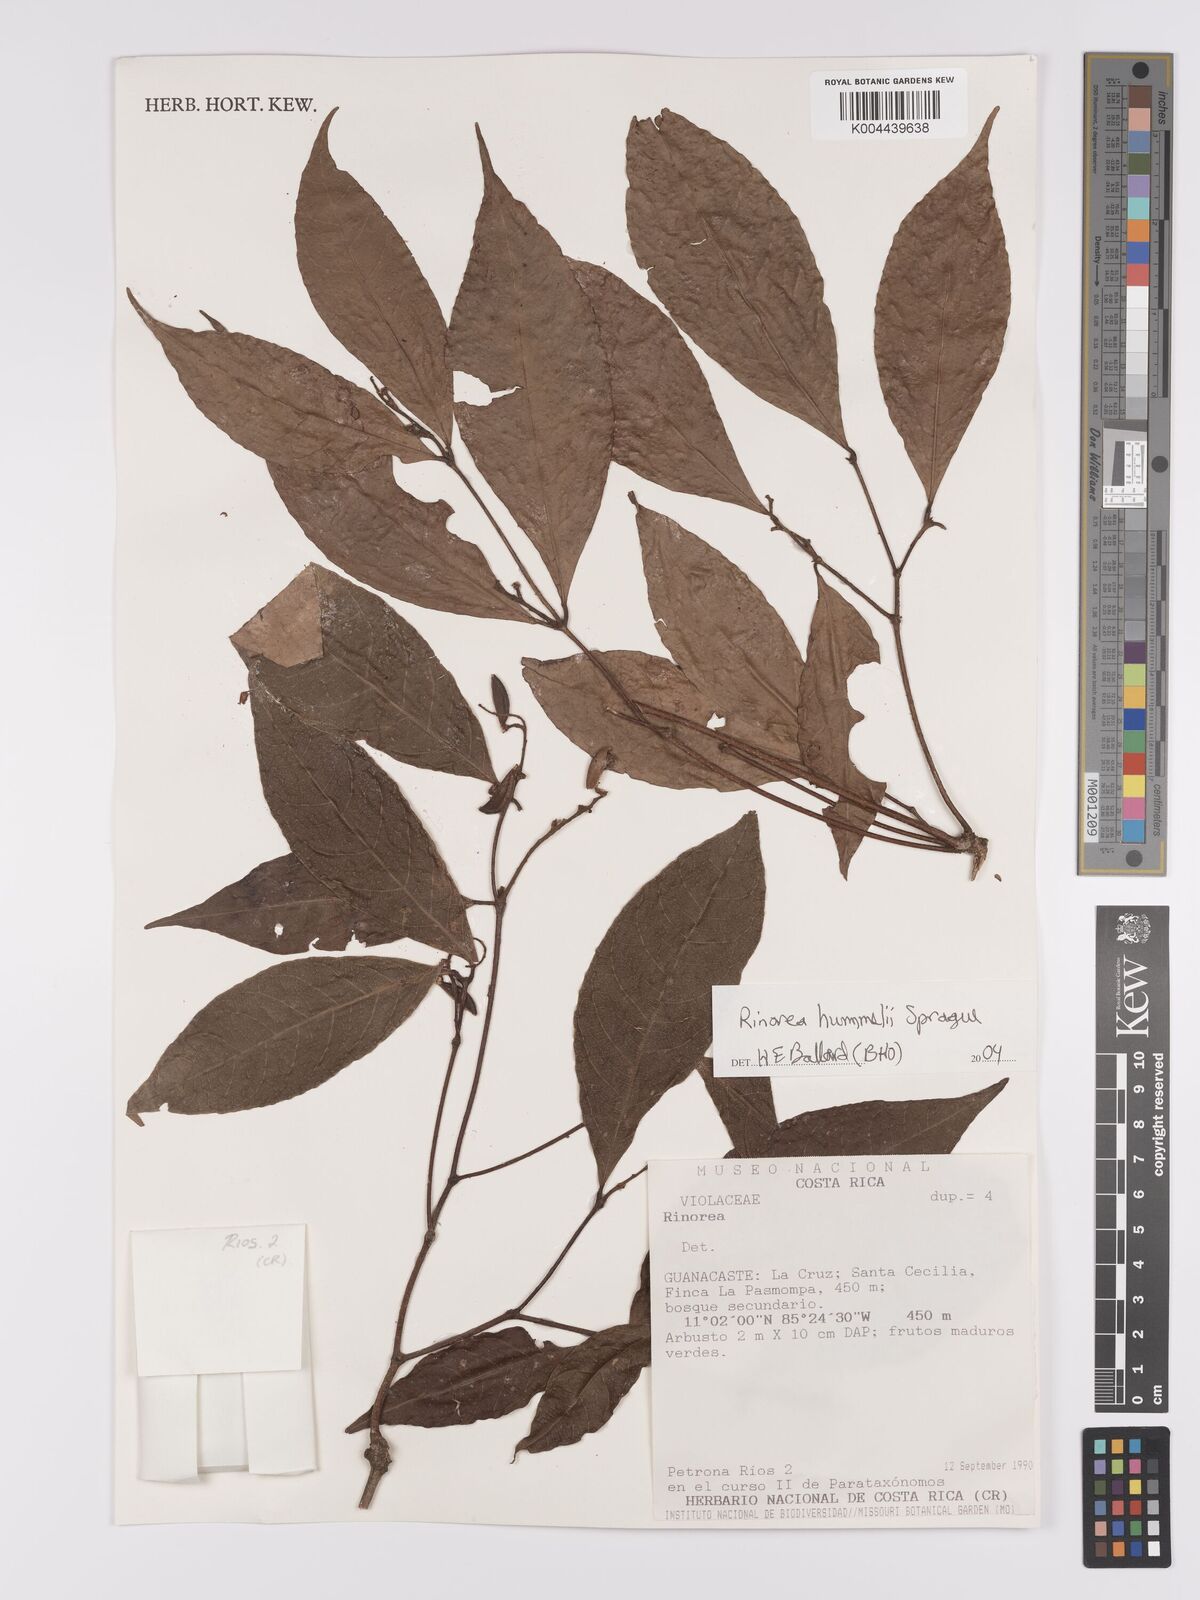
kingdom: Plantae
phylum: Tracheophyta
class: Magnoliopsida
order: Malpighiales
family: Violaceae
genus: Rinorea
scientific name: Rinorea hummelii
